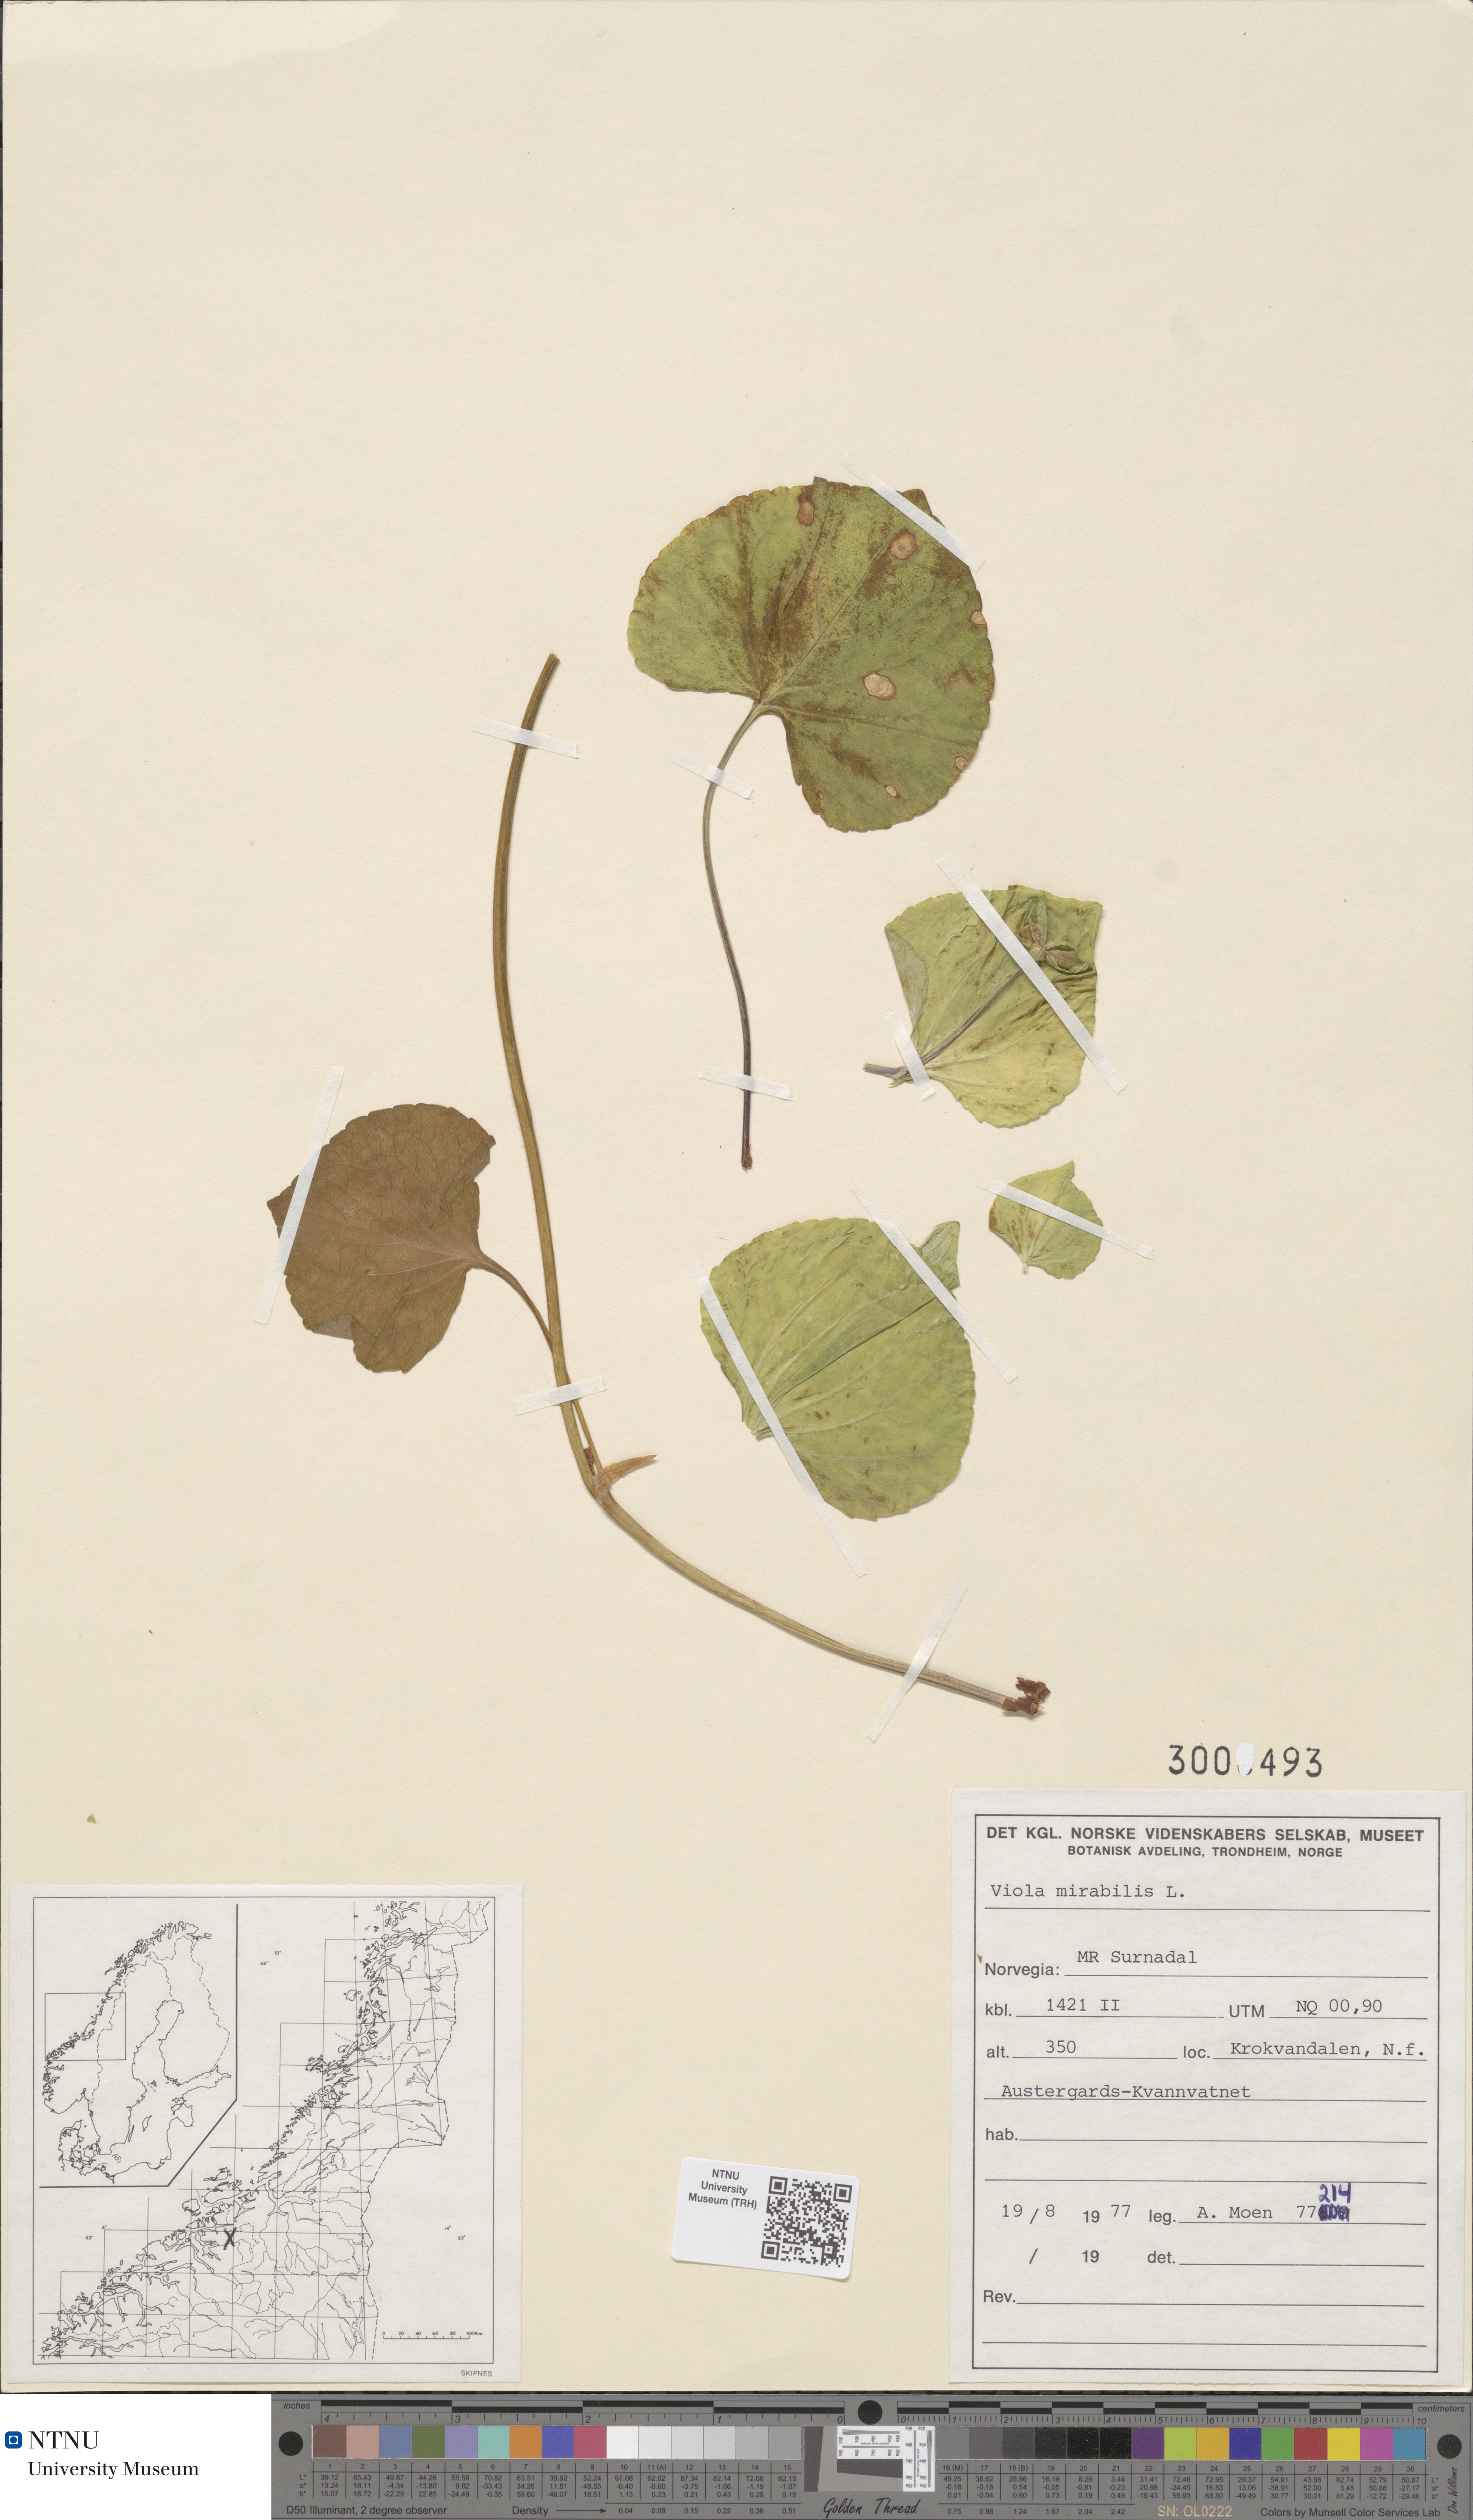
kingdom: Plantae
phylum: Tracheophyta
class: Magnoliopsida
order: Malpighiales
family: Violaceae
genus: Viola
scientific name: Viola mirabilis
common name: Wonder violet
